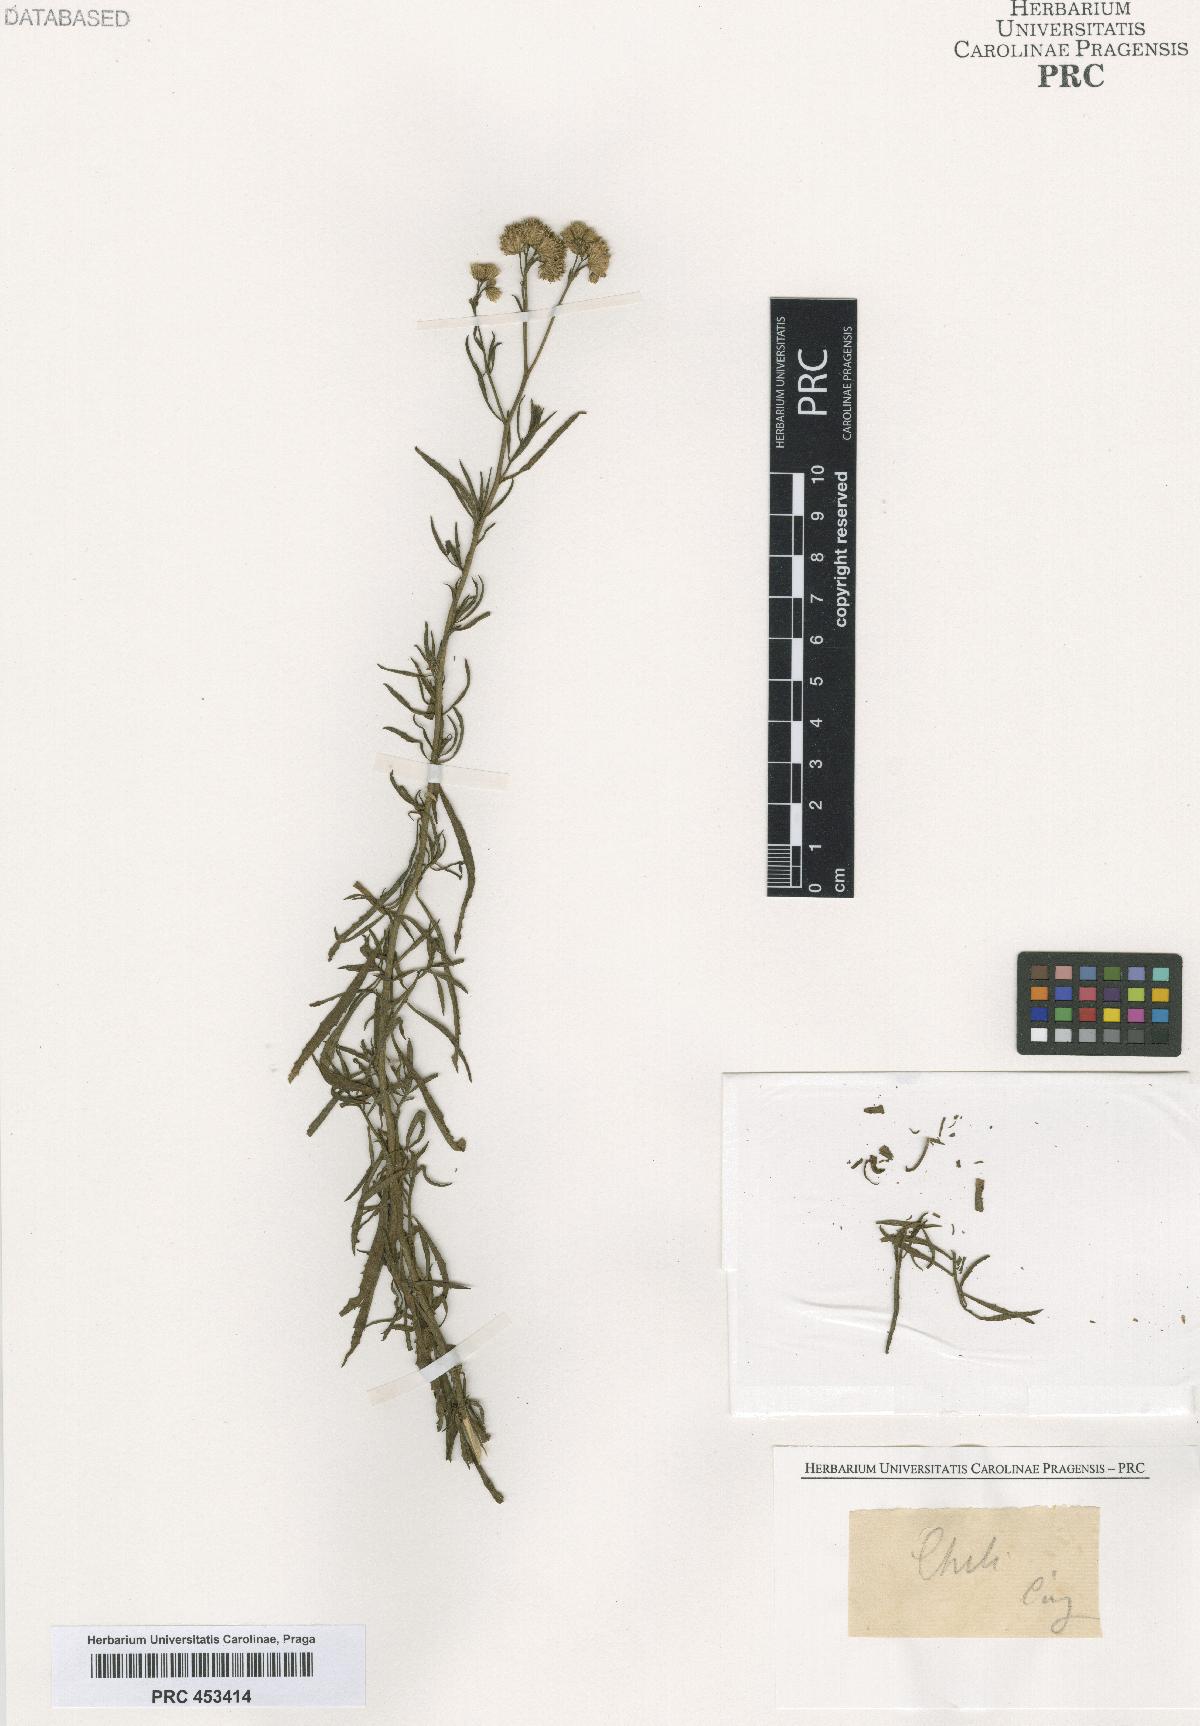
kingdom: Plantae
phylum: Tracheophyta
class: Magnoliopsida
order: Asterales
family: Asteraceae
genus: Baccharis
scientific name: Baccharis
